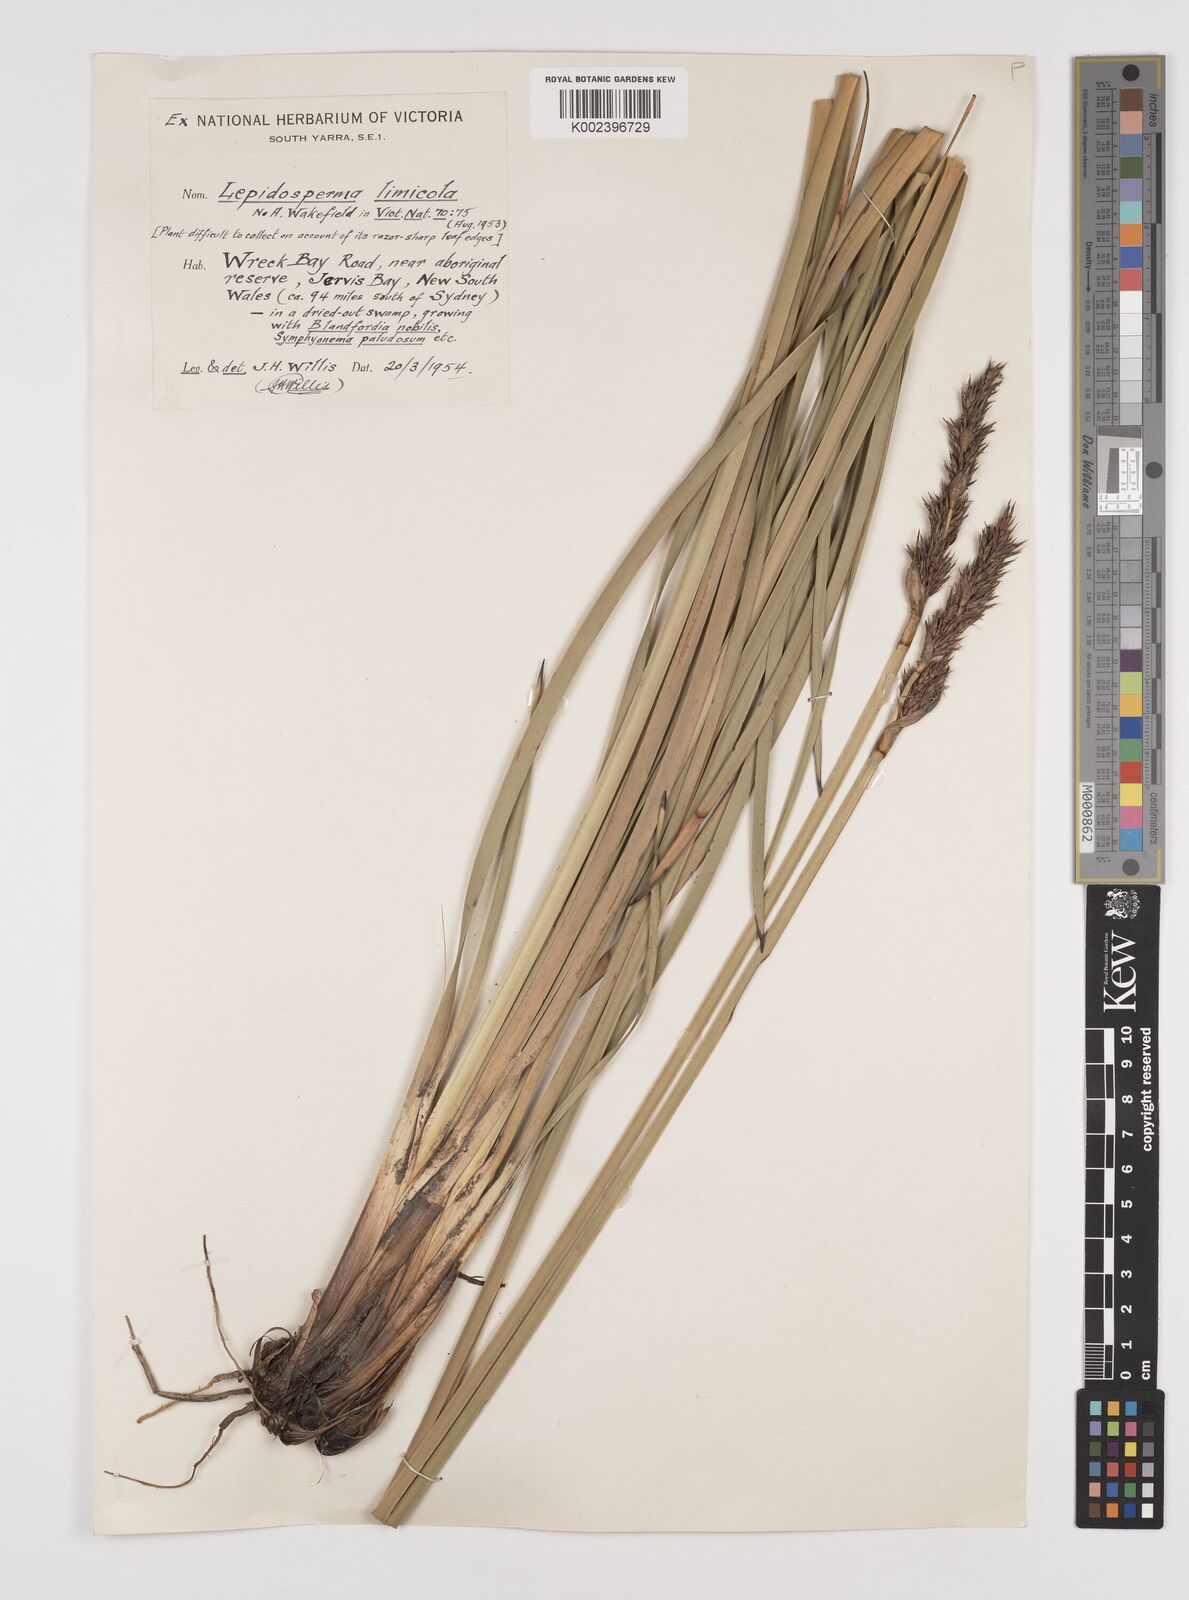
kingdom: Plantae
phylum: Tracheophyta
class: Liliopsida
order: Poales
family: Cyperaceae
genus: Lepidosperma
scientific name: Lepidosperma limicola
